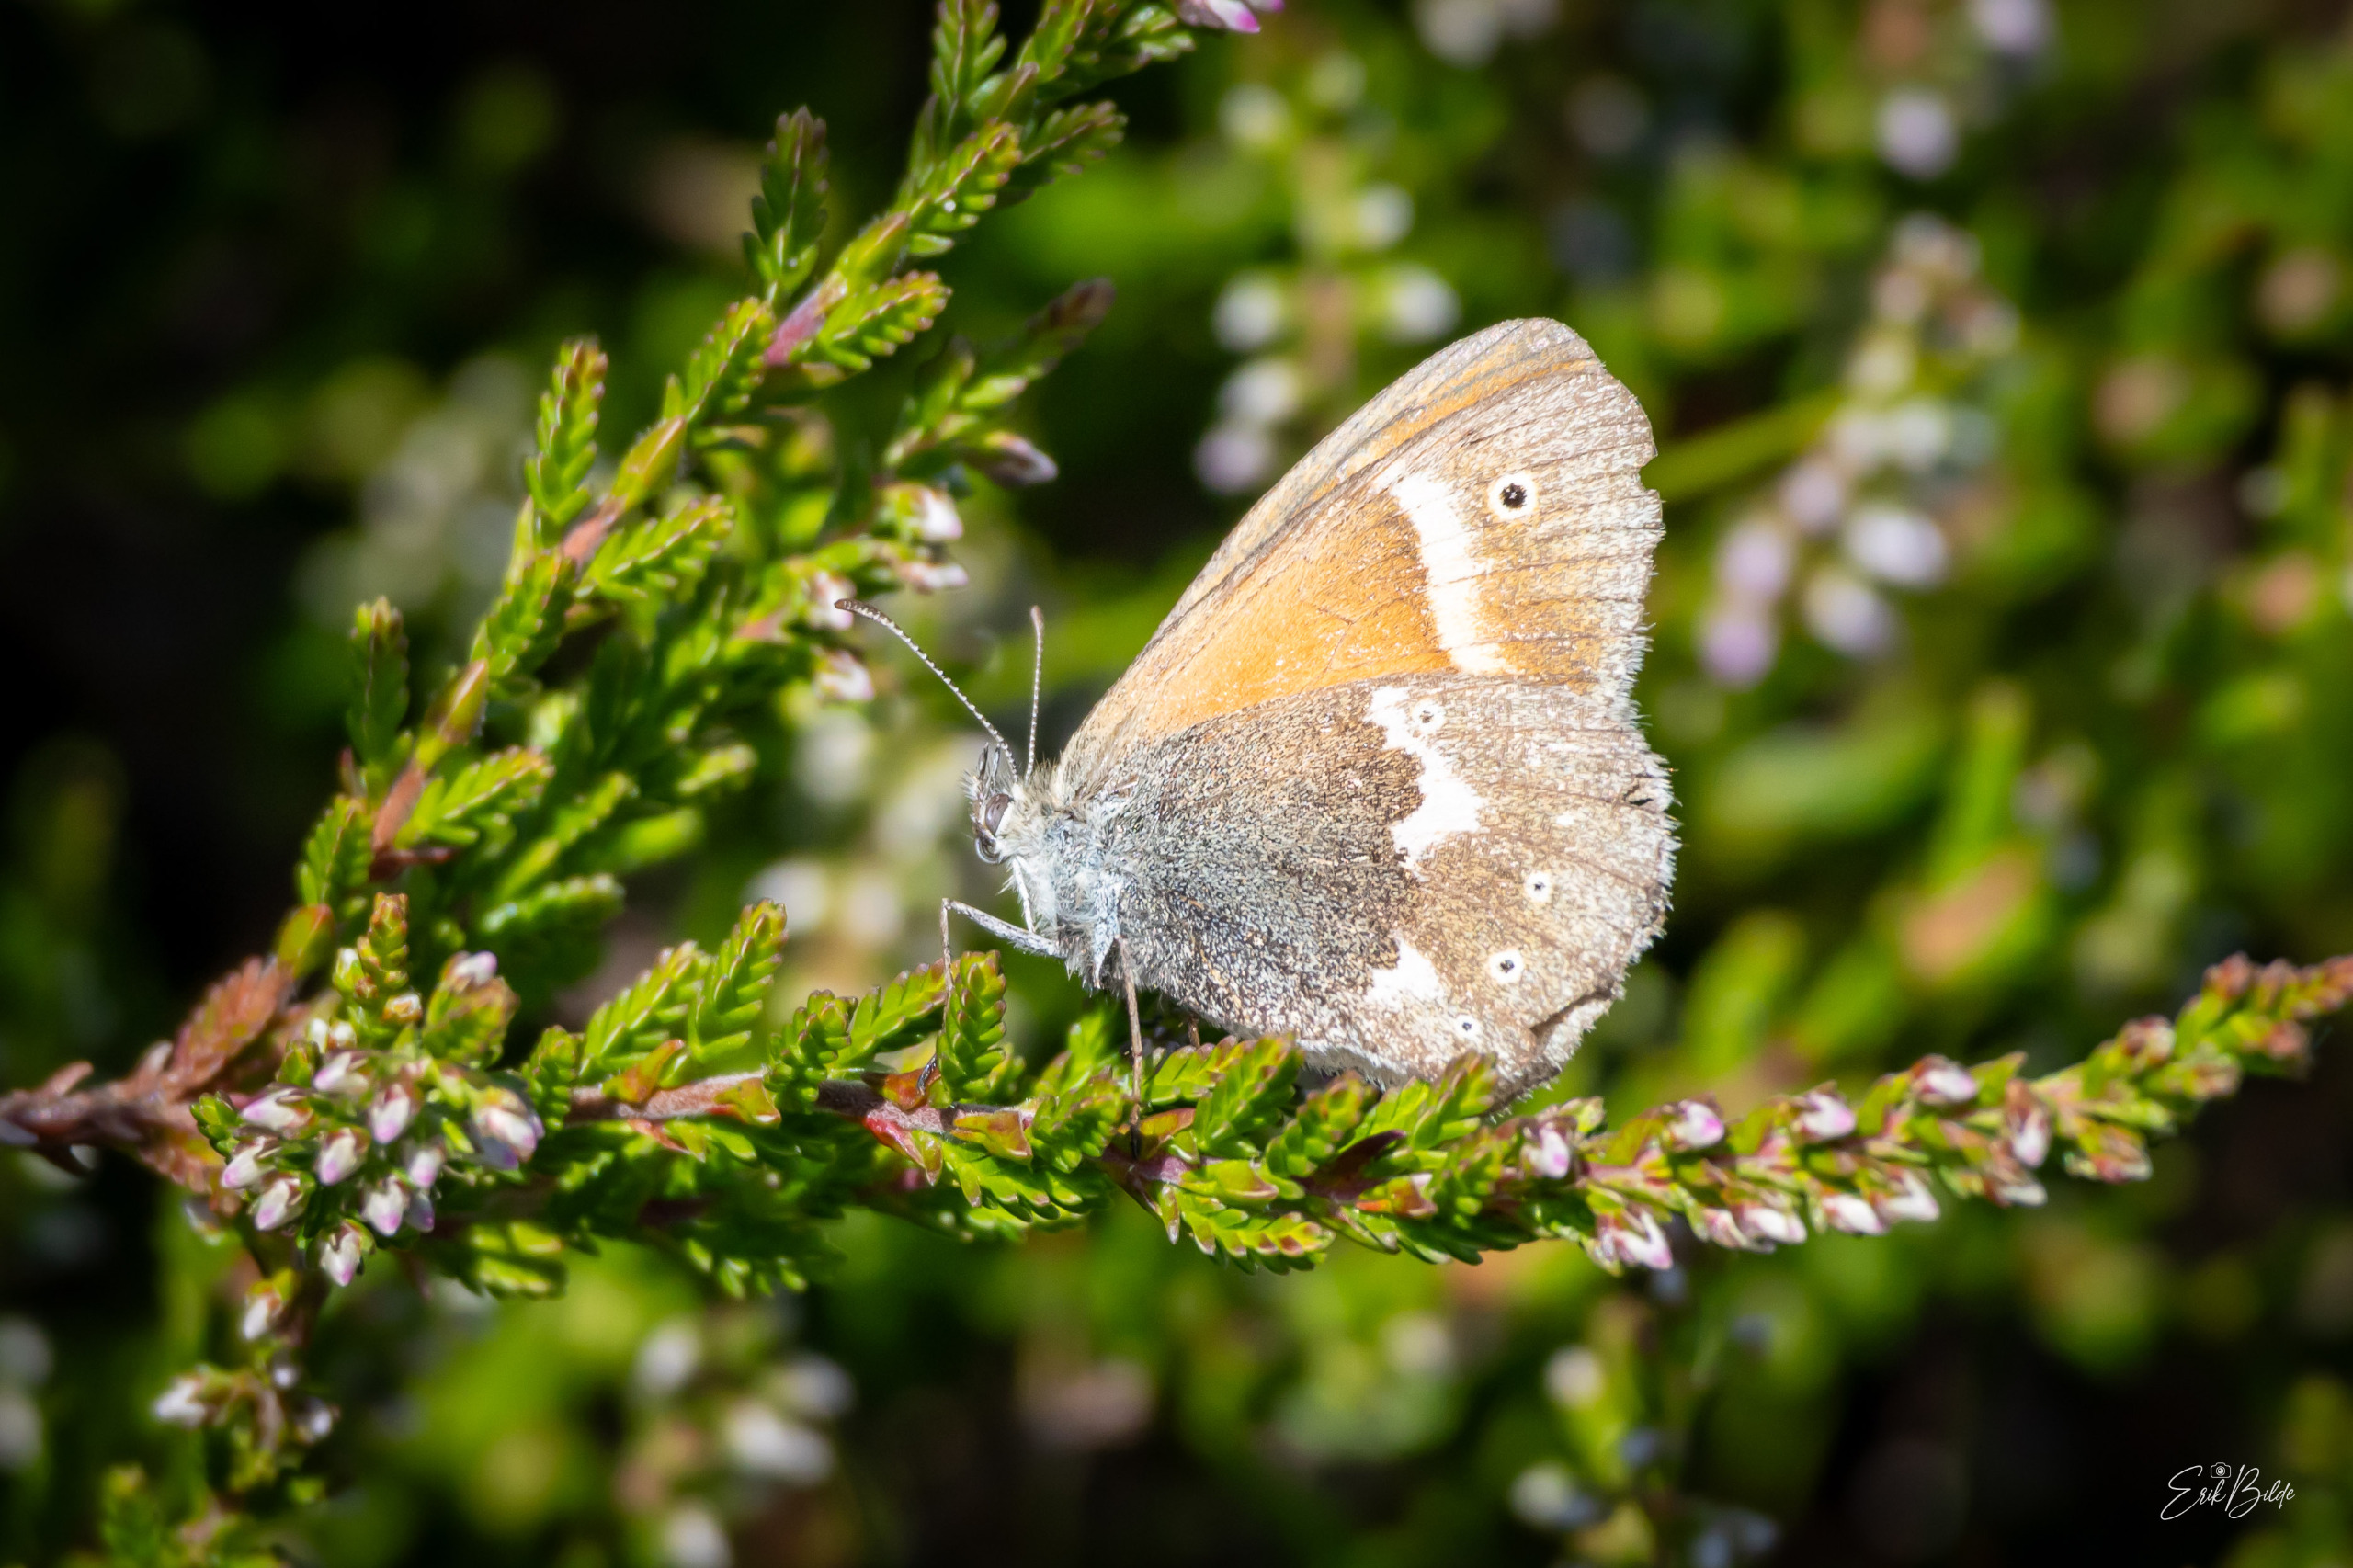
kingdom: Animalia
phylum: Arthropoda
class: Insecta
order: Lepidoptera
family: Nymphalidae
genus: Coenonympha
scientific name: Coenonympha tullia
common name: Moserandøje
